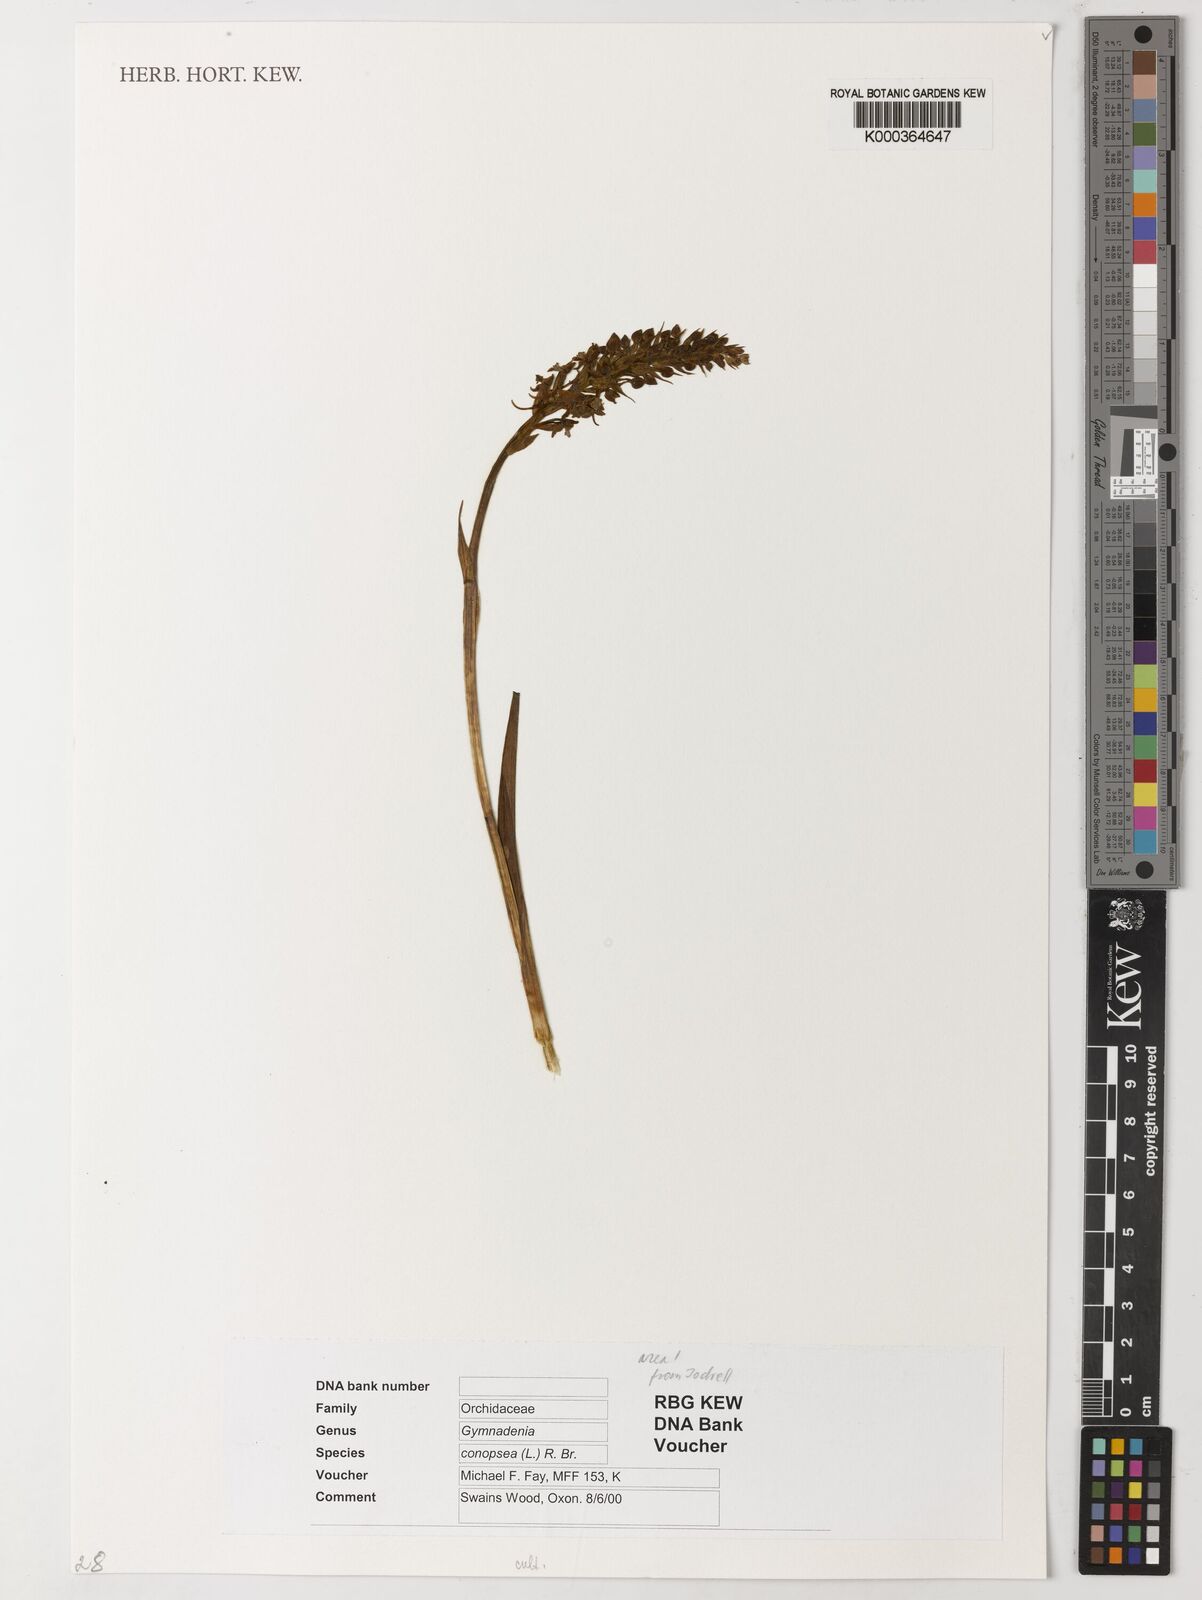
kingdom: Plantae
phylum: Tracheophyta
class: Liliopsida
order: Asparagales
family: Orchidaceae
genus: Gymnadenia
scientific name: Gymnadenia conopsea
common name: Fragrant orchid
